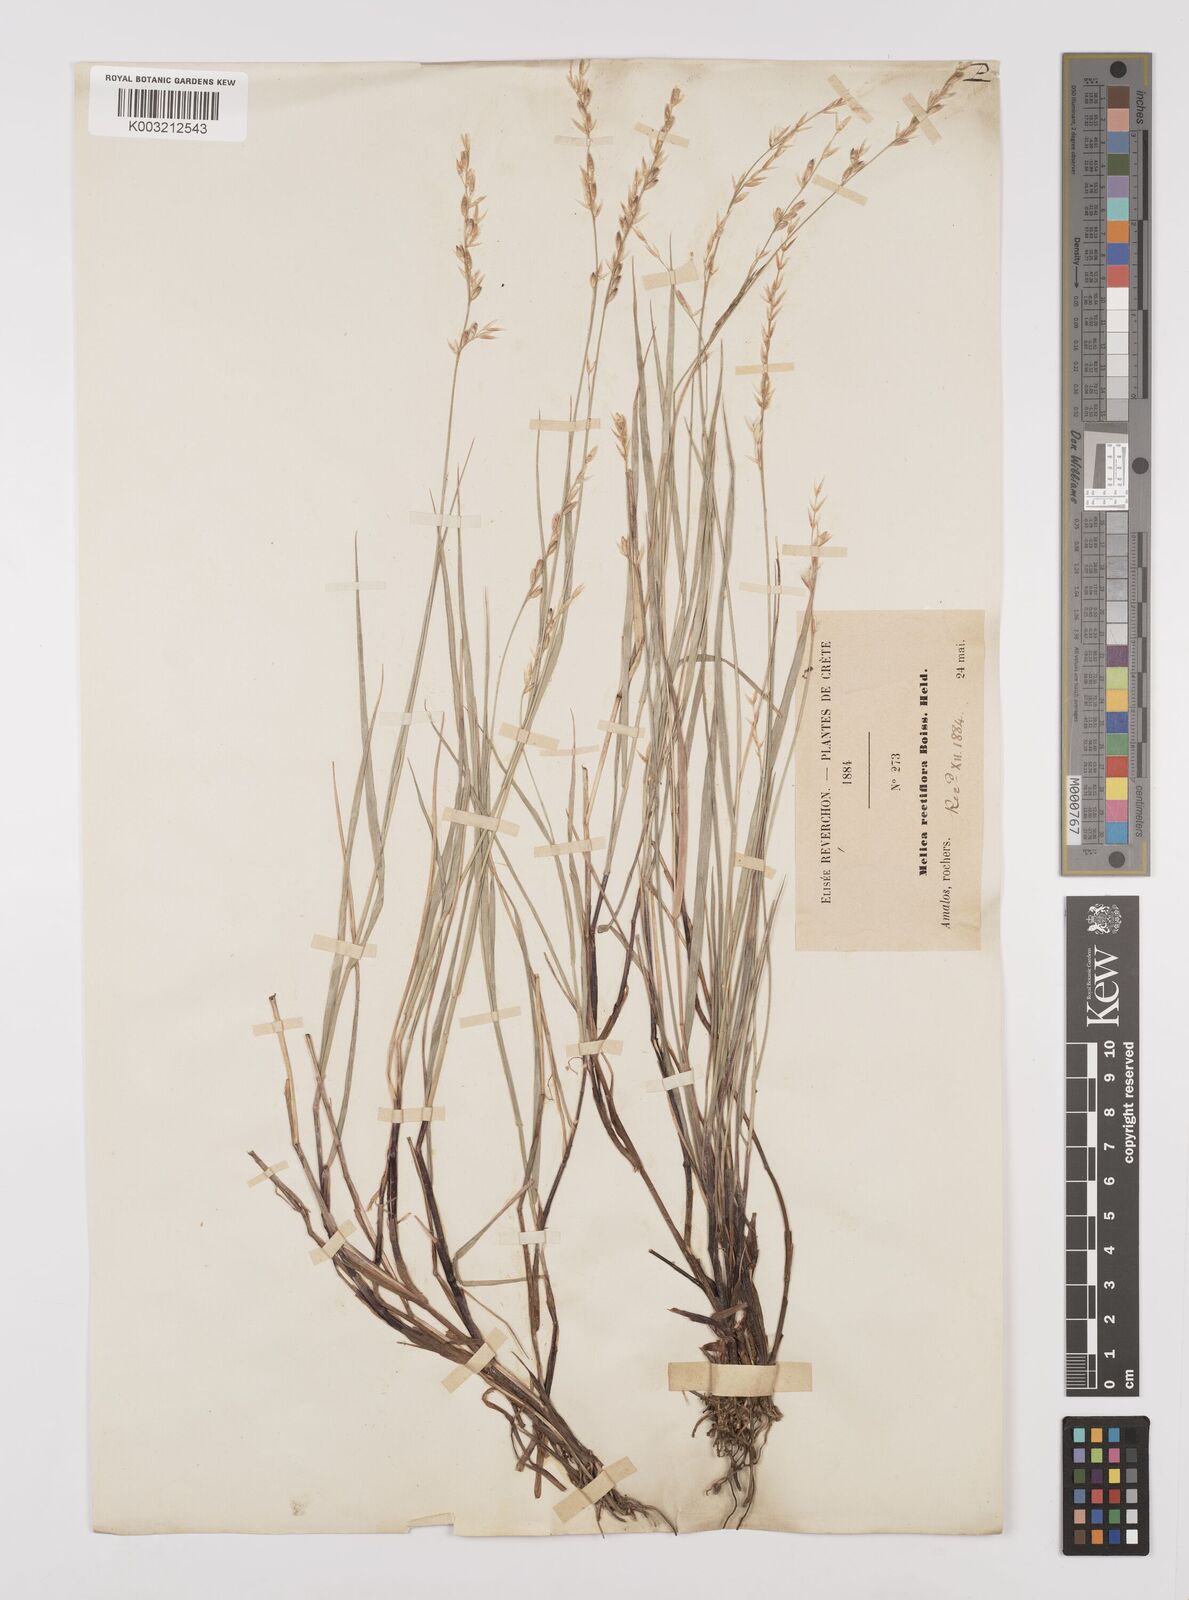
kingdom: Plantae
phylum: Tracheophyta
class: Liliopsida
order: Poales
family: Poaceae
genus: Melica
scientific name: Melica rectiflora
